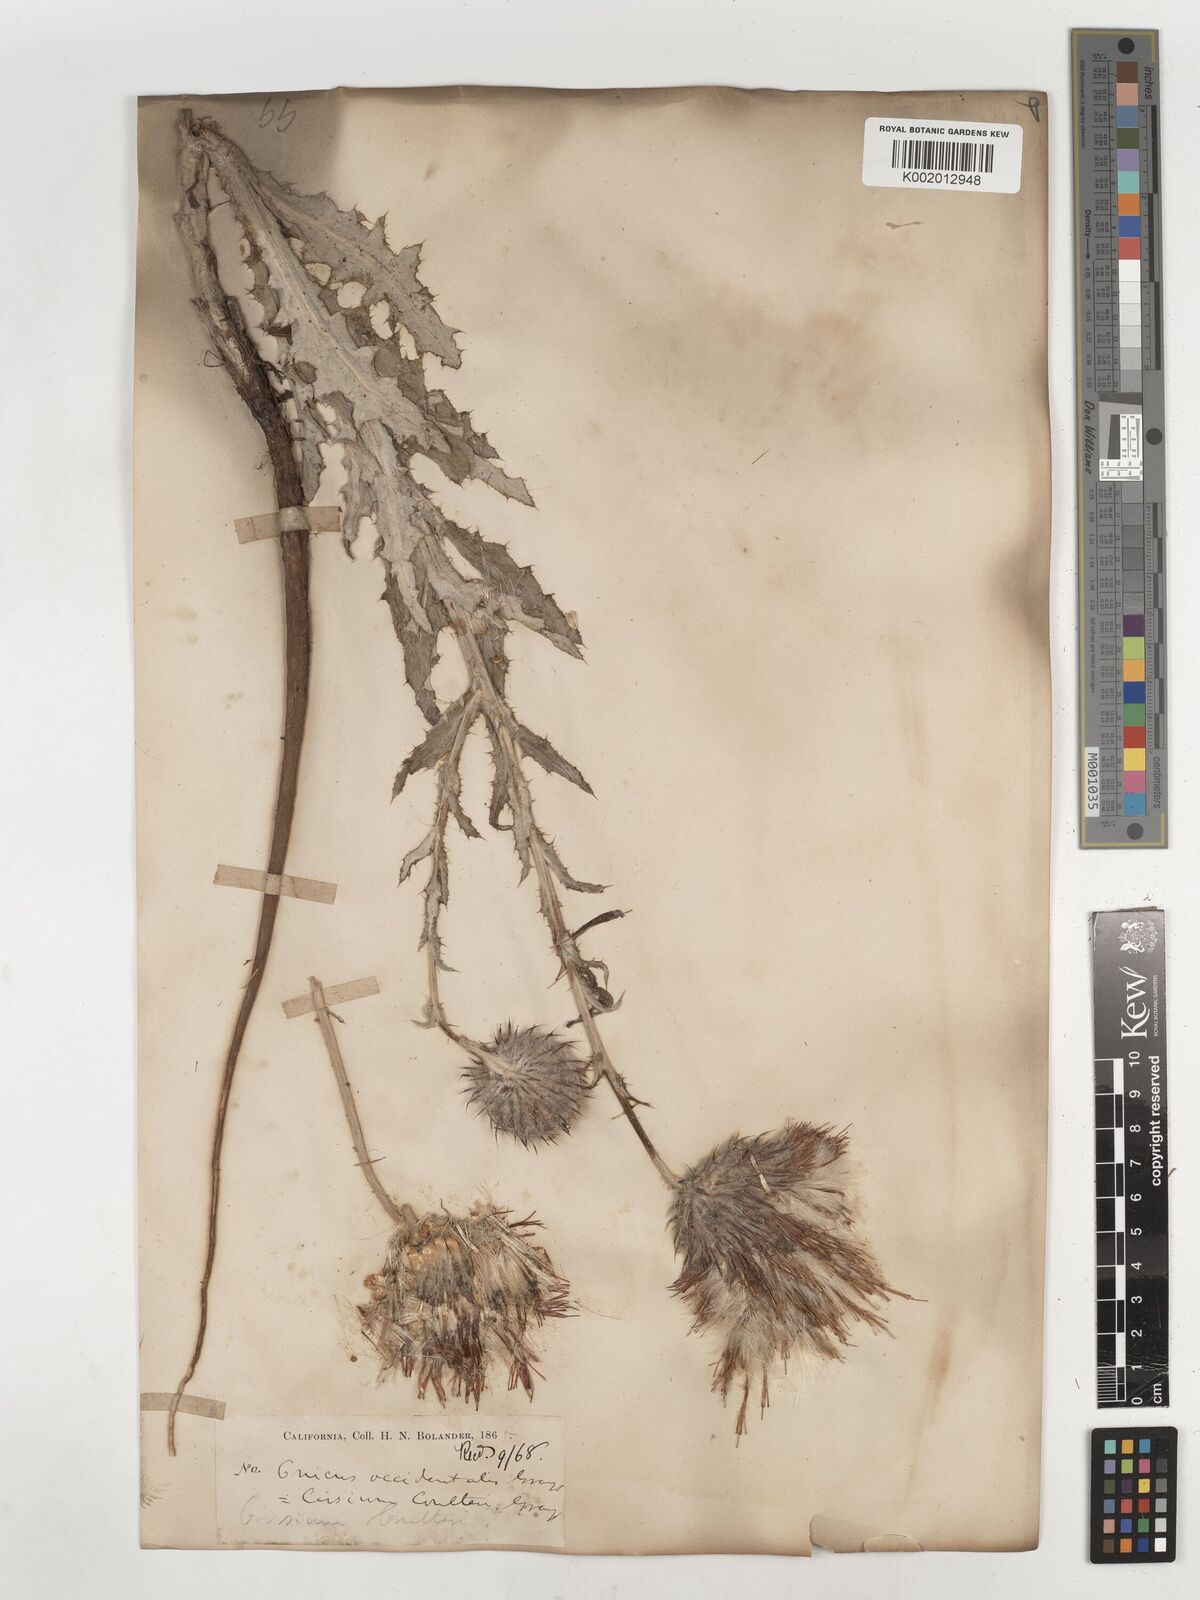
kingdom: Plantae
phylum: Tracheophyta
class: Magnoliopsida
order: Asterales
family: Asteraceae
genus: Cirsium
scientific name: Cirsium occidentale
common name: Western thistle
